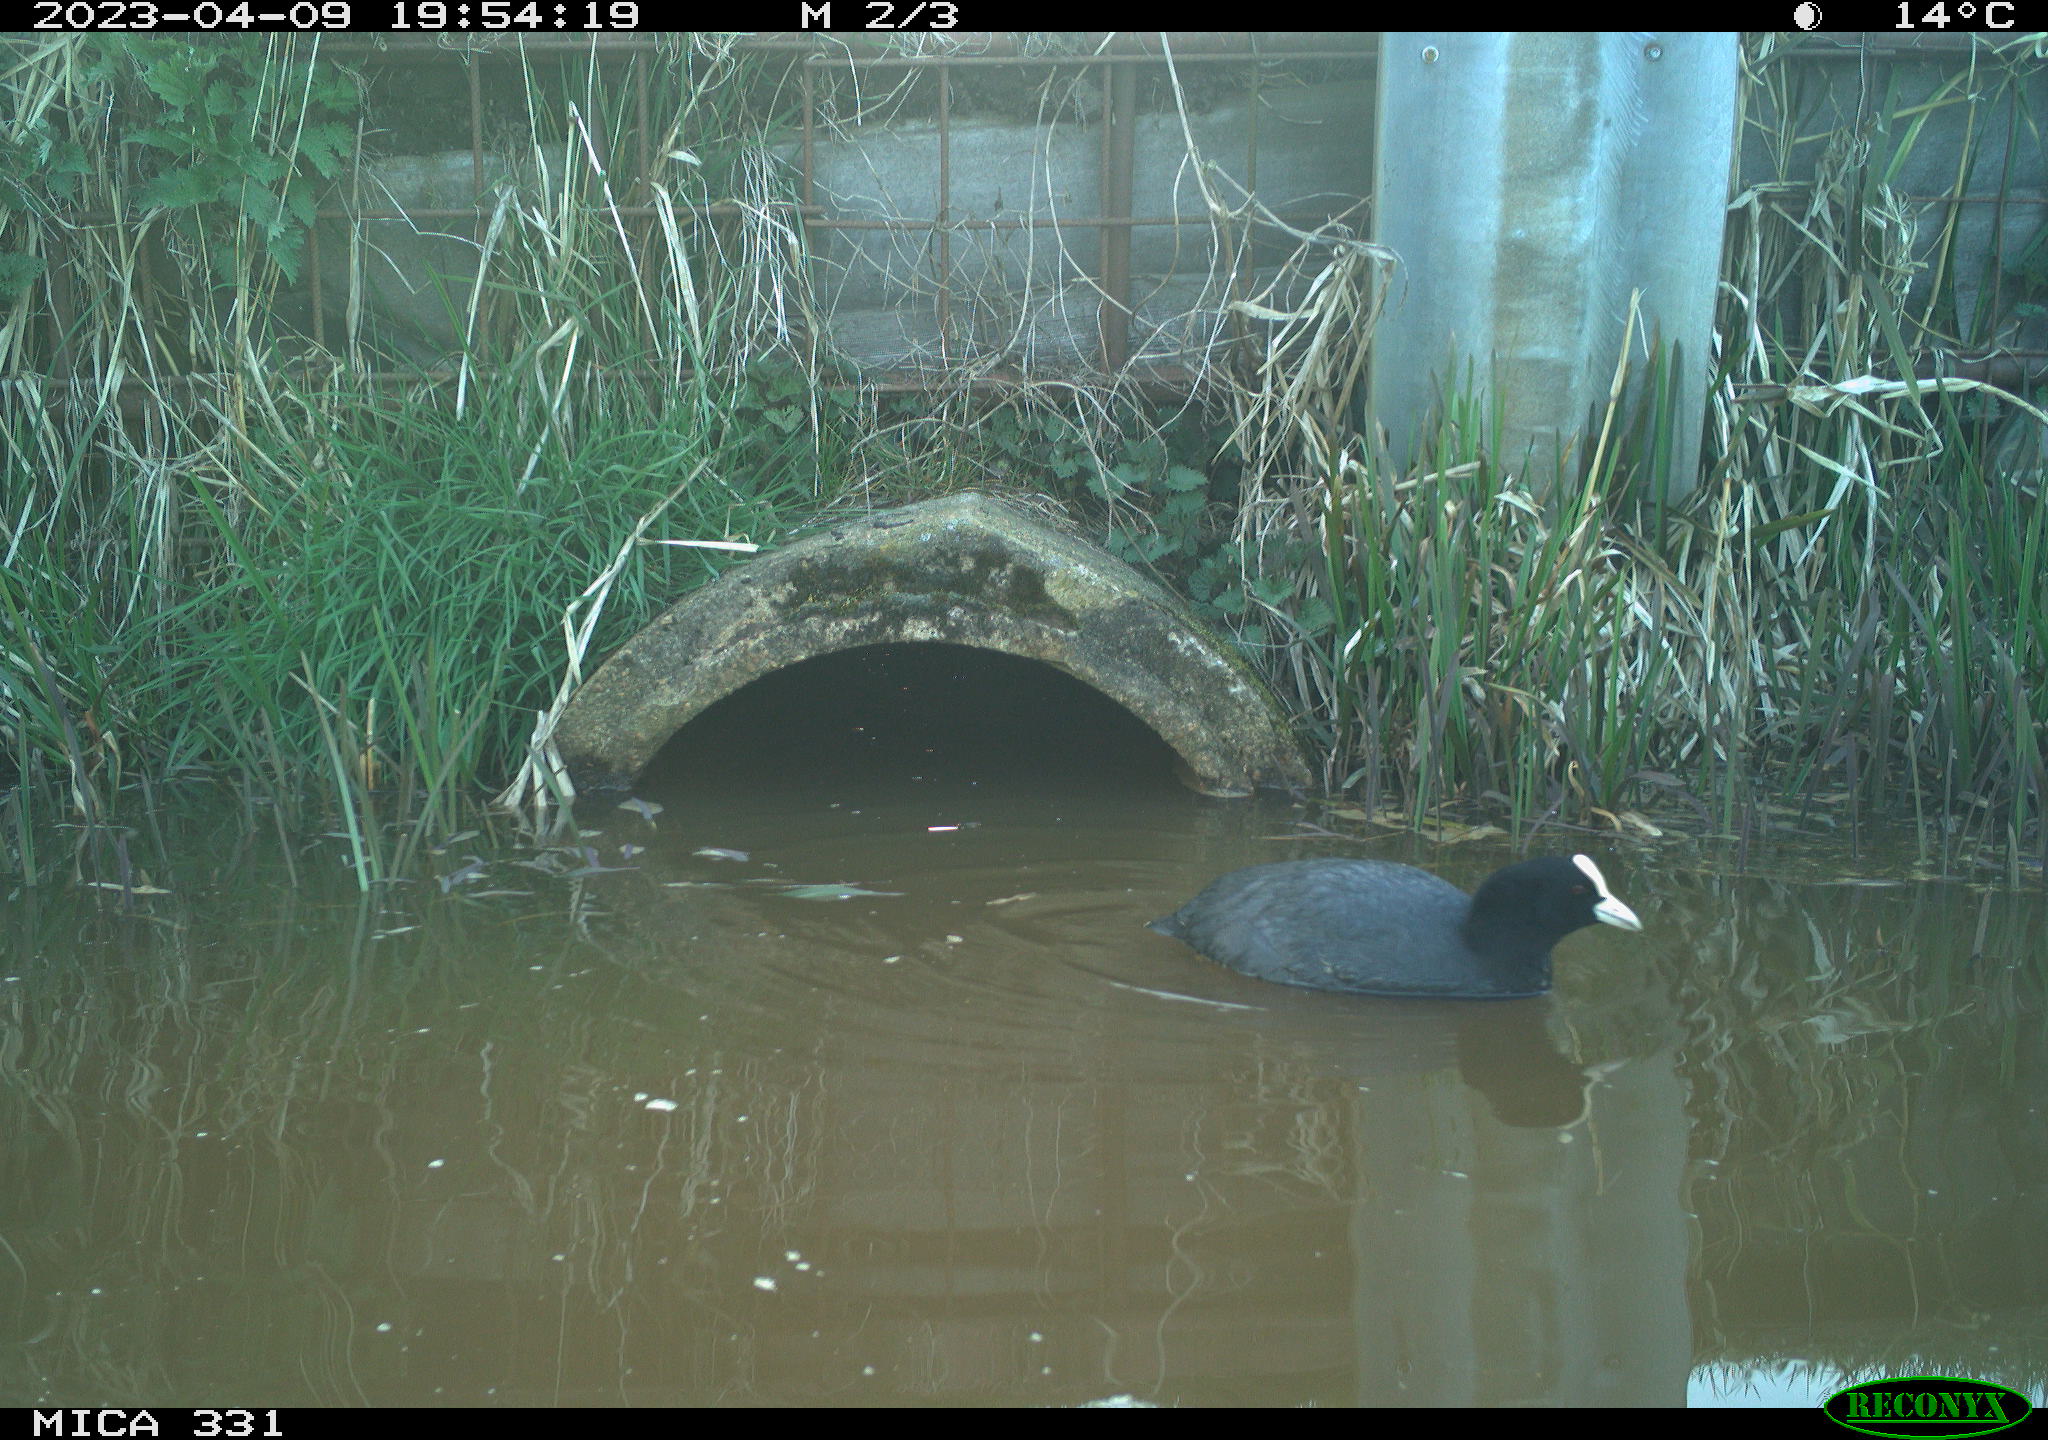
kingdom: Animalia
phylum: Chordata
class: Aves
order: Gruiformes
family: Rallidae
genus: Fulica
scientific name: Fulica atra
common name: Eurasian coot
